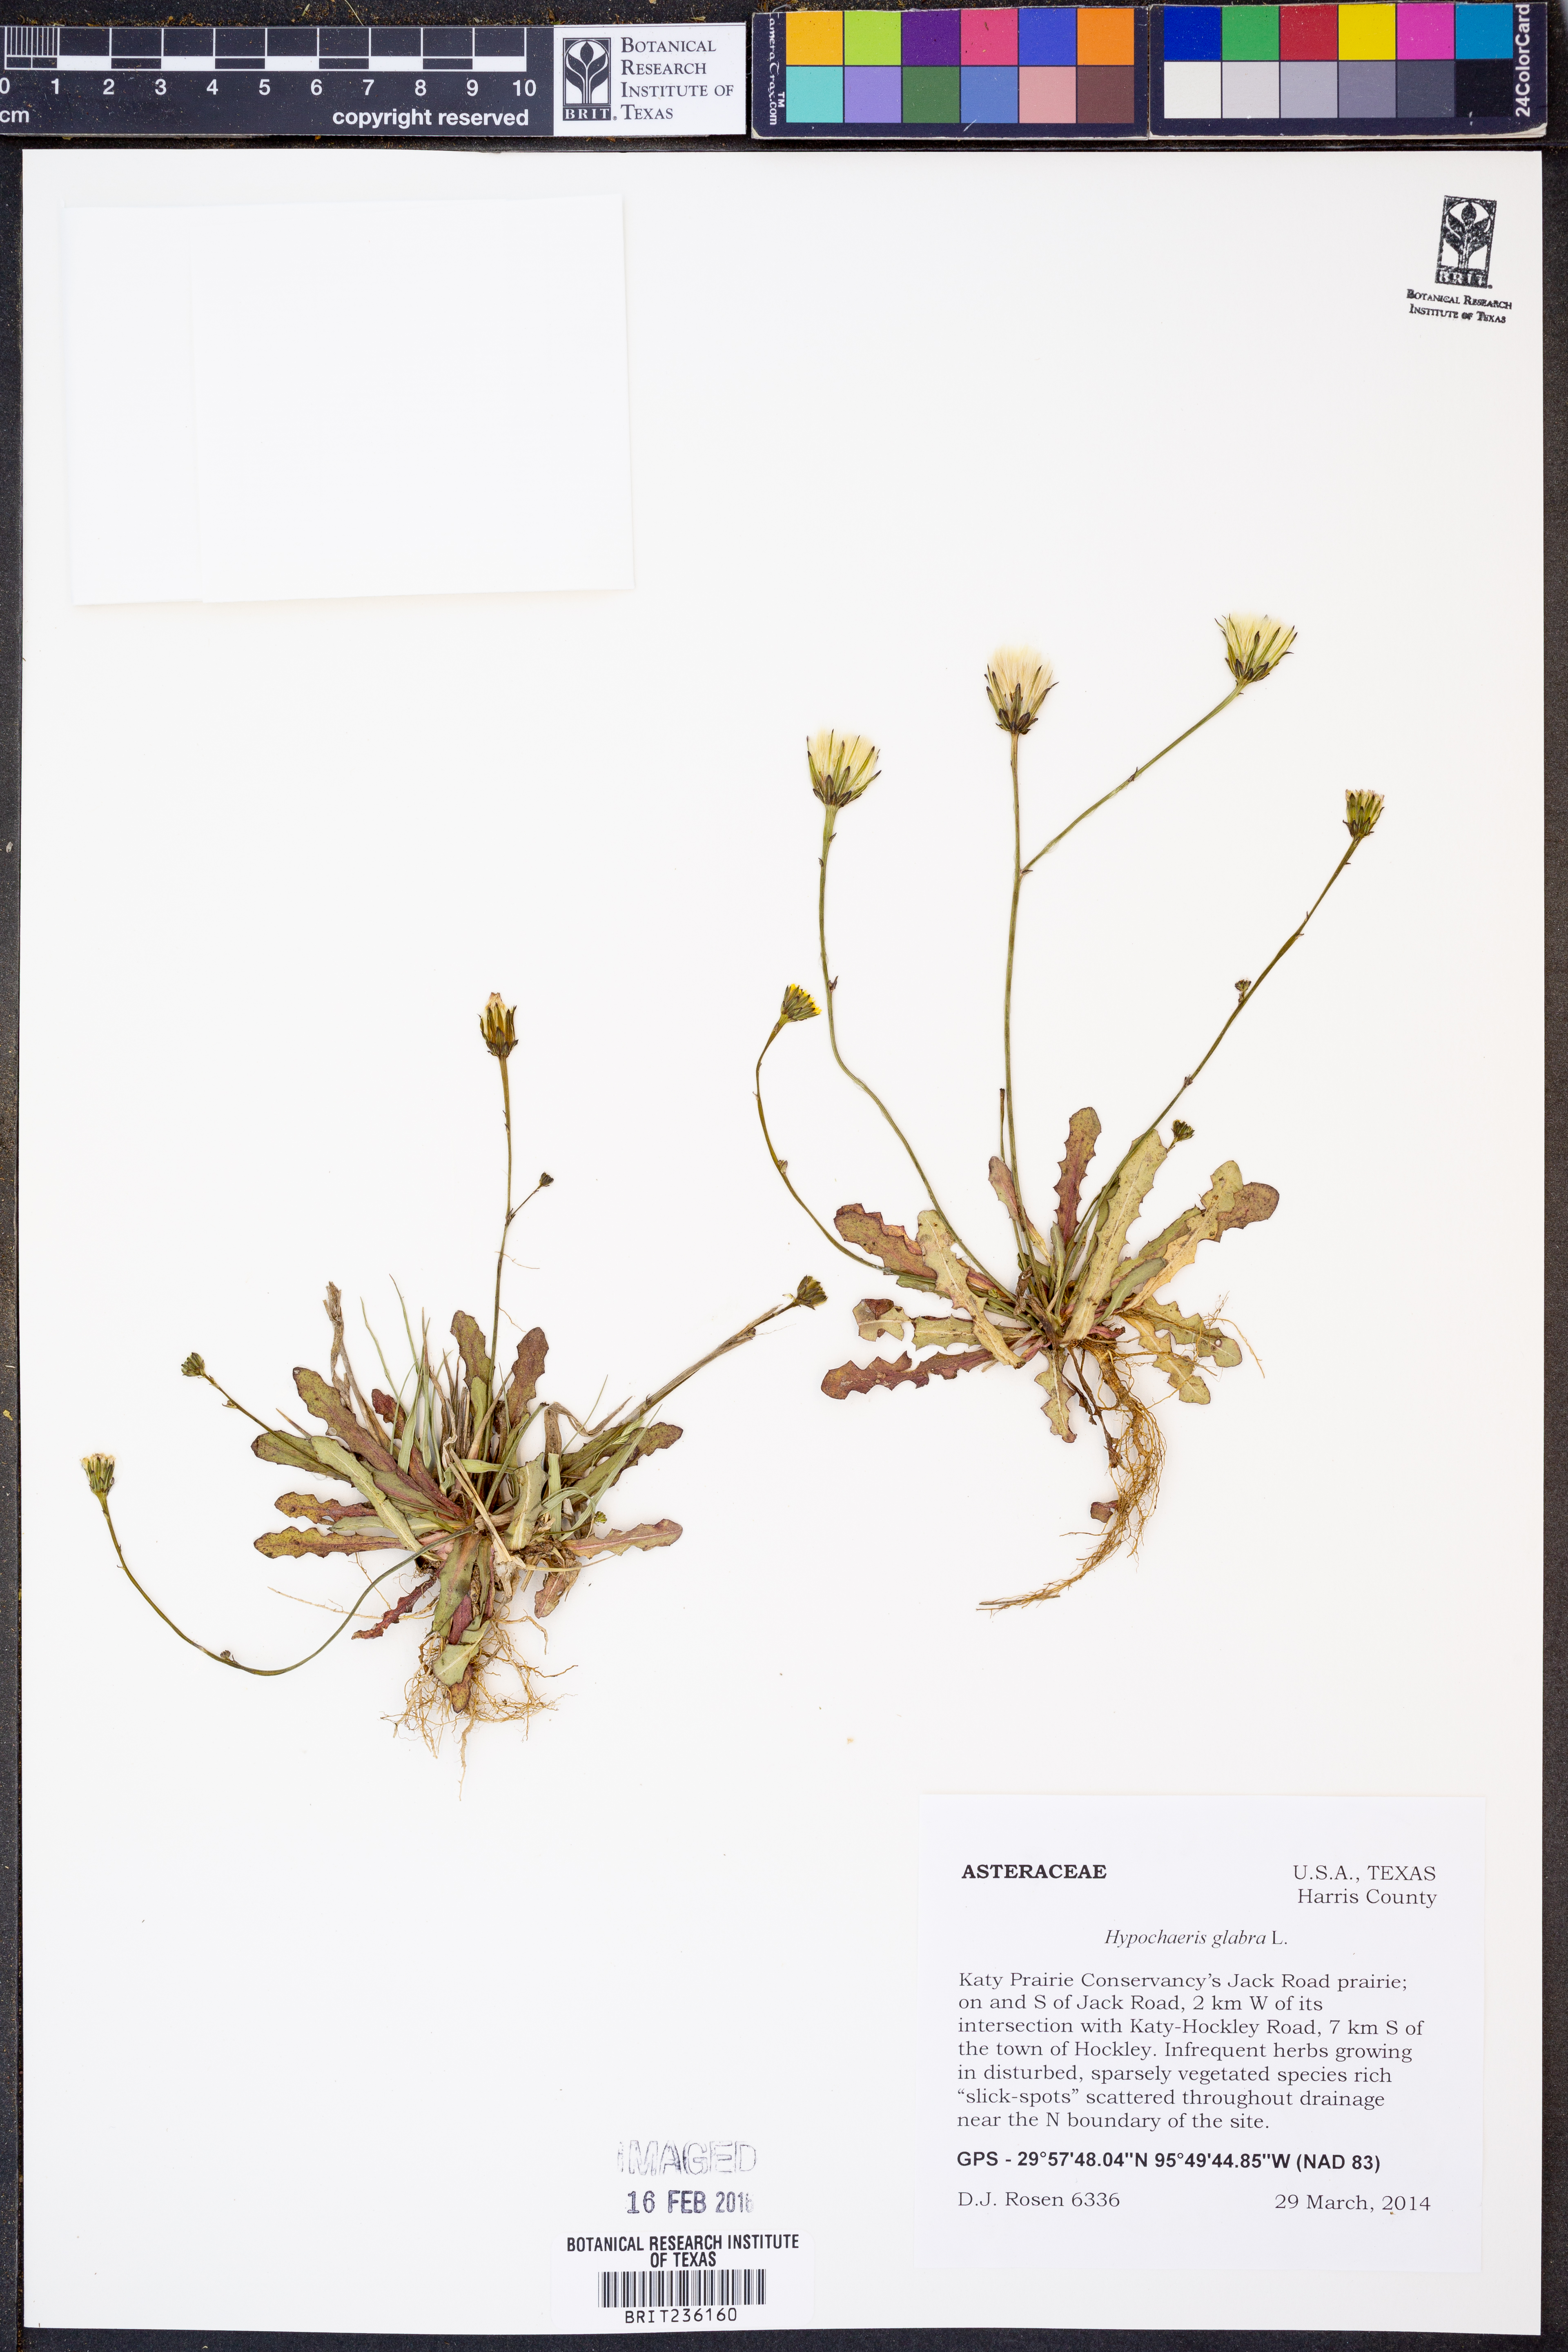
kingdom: Plantae
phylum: Tracheophyta
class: Magnoliopsida
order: Asterales
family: Asteraceae
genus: Hypochaeris
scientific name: Hypochaeris glabra
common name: Smooth catsear
